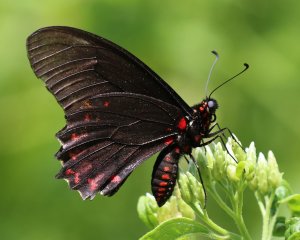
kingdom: Animalia
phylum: Arthropoda
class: Insecta
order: Lepidoptera
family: Papilionidae
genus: Mimoides
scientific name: Mimoides phaon
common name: Variable Swallowtail
